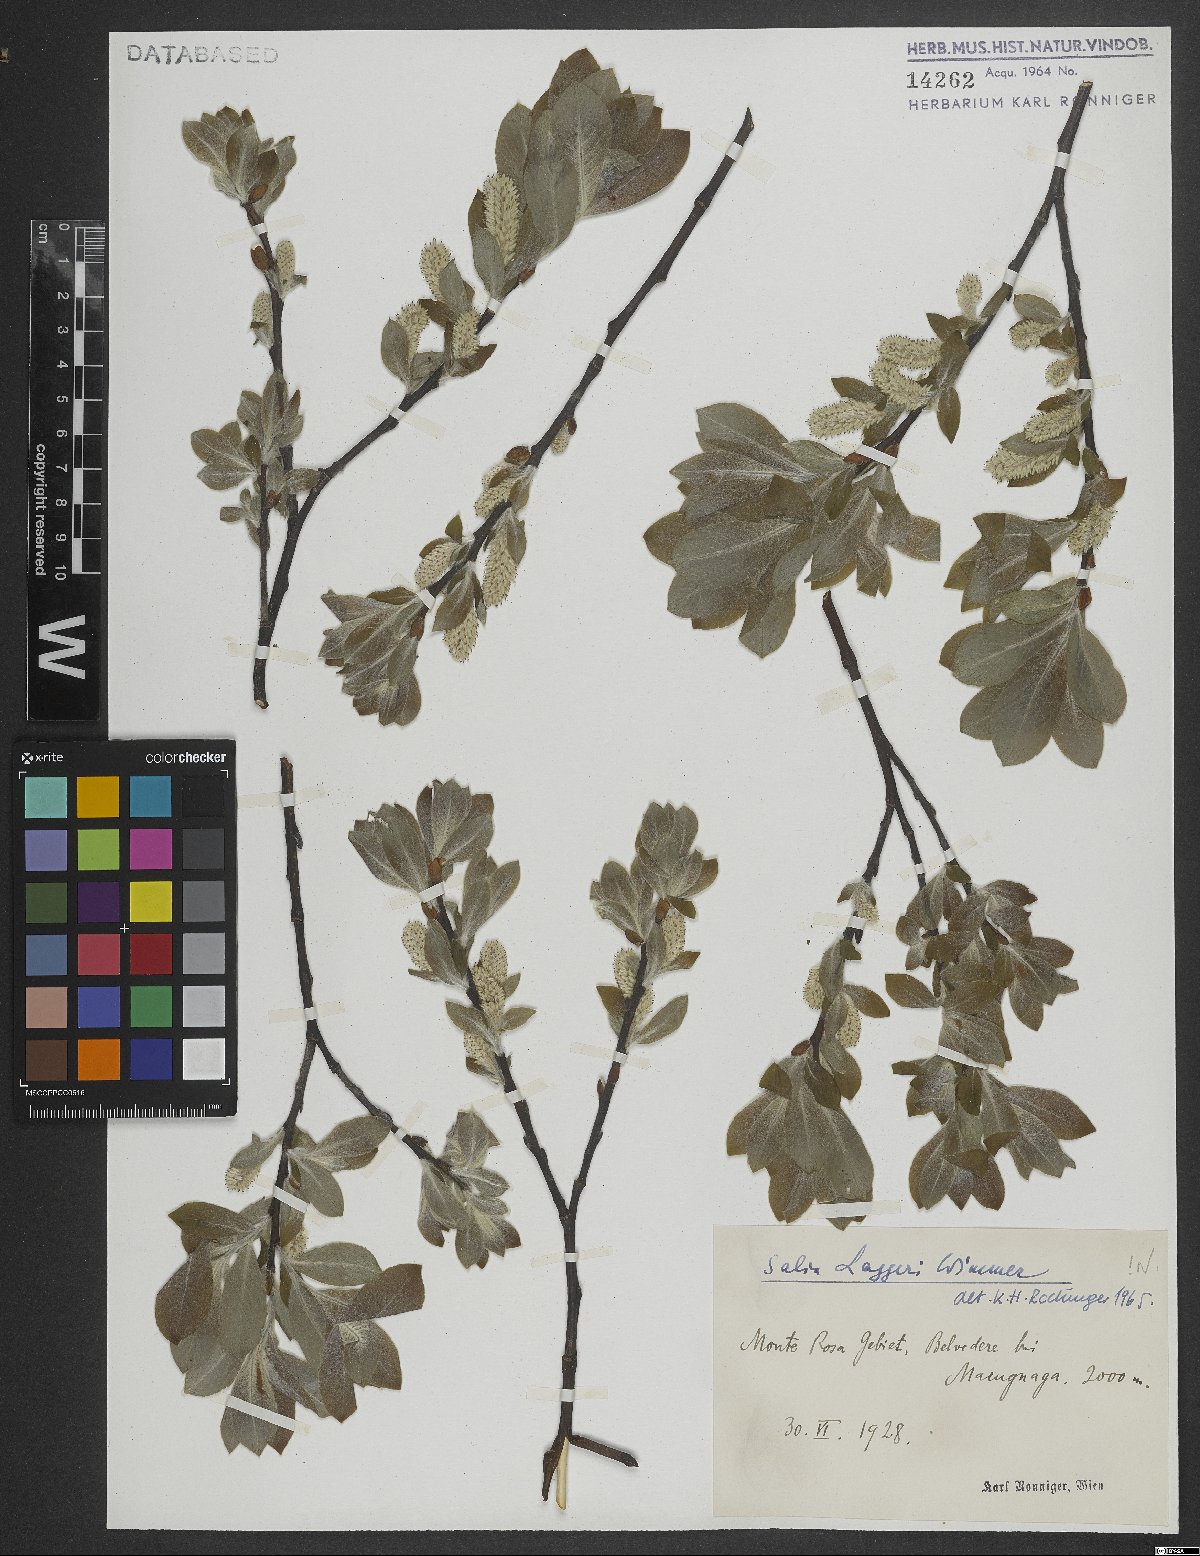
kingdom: Plantae
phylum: Tracheophyta
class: Magnoliopsida
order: Malpighiales
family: Salicaceae
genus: Salix
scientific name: Salix laggeri
